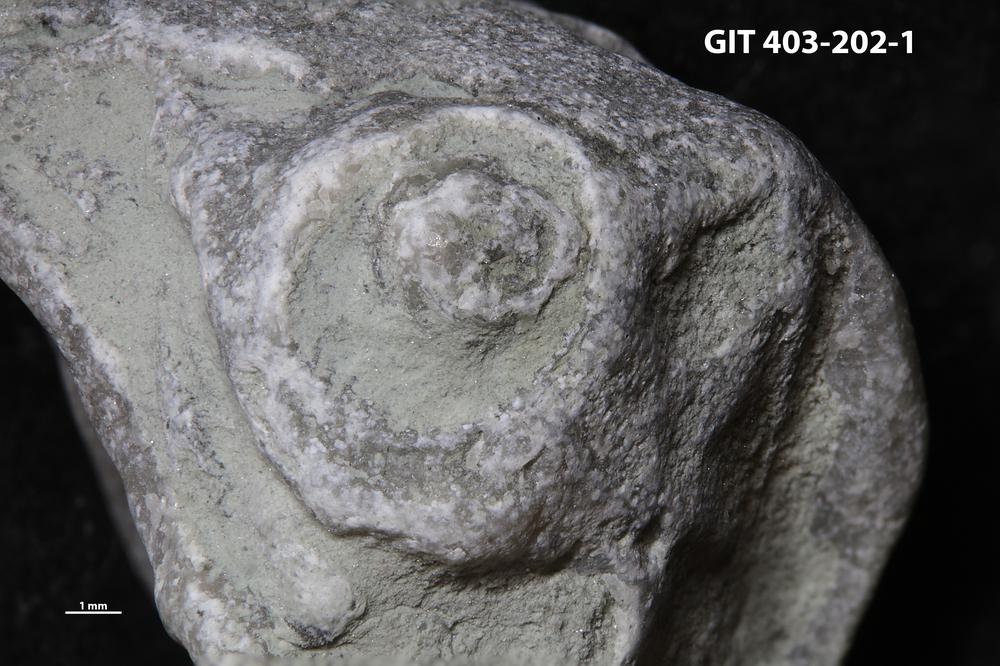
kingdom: Animalia
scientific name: Animalia
